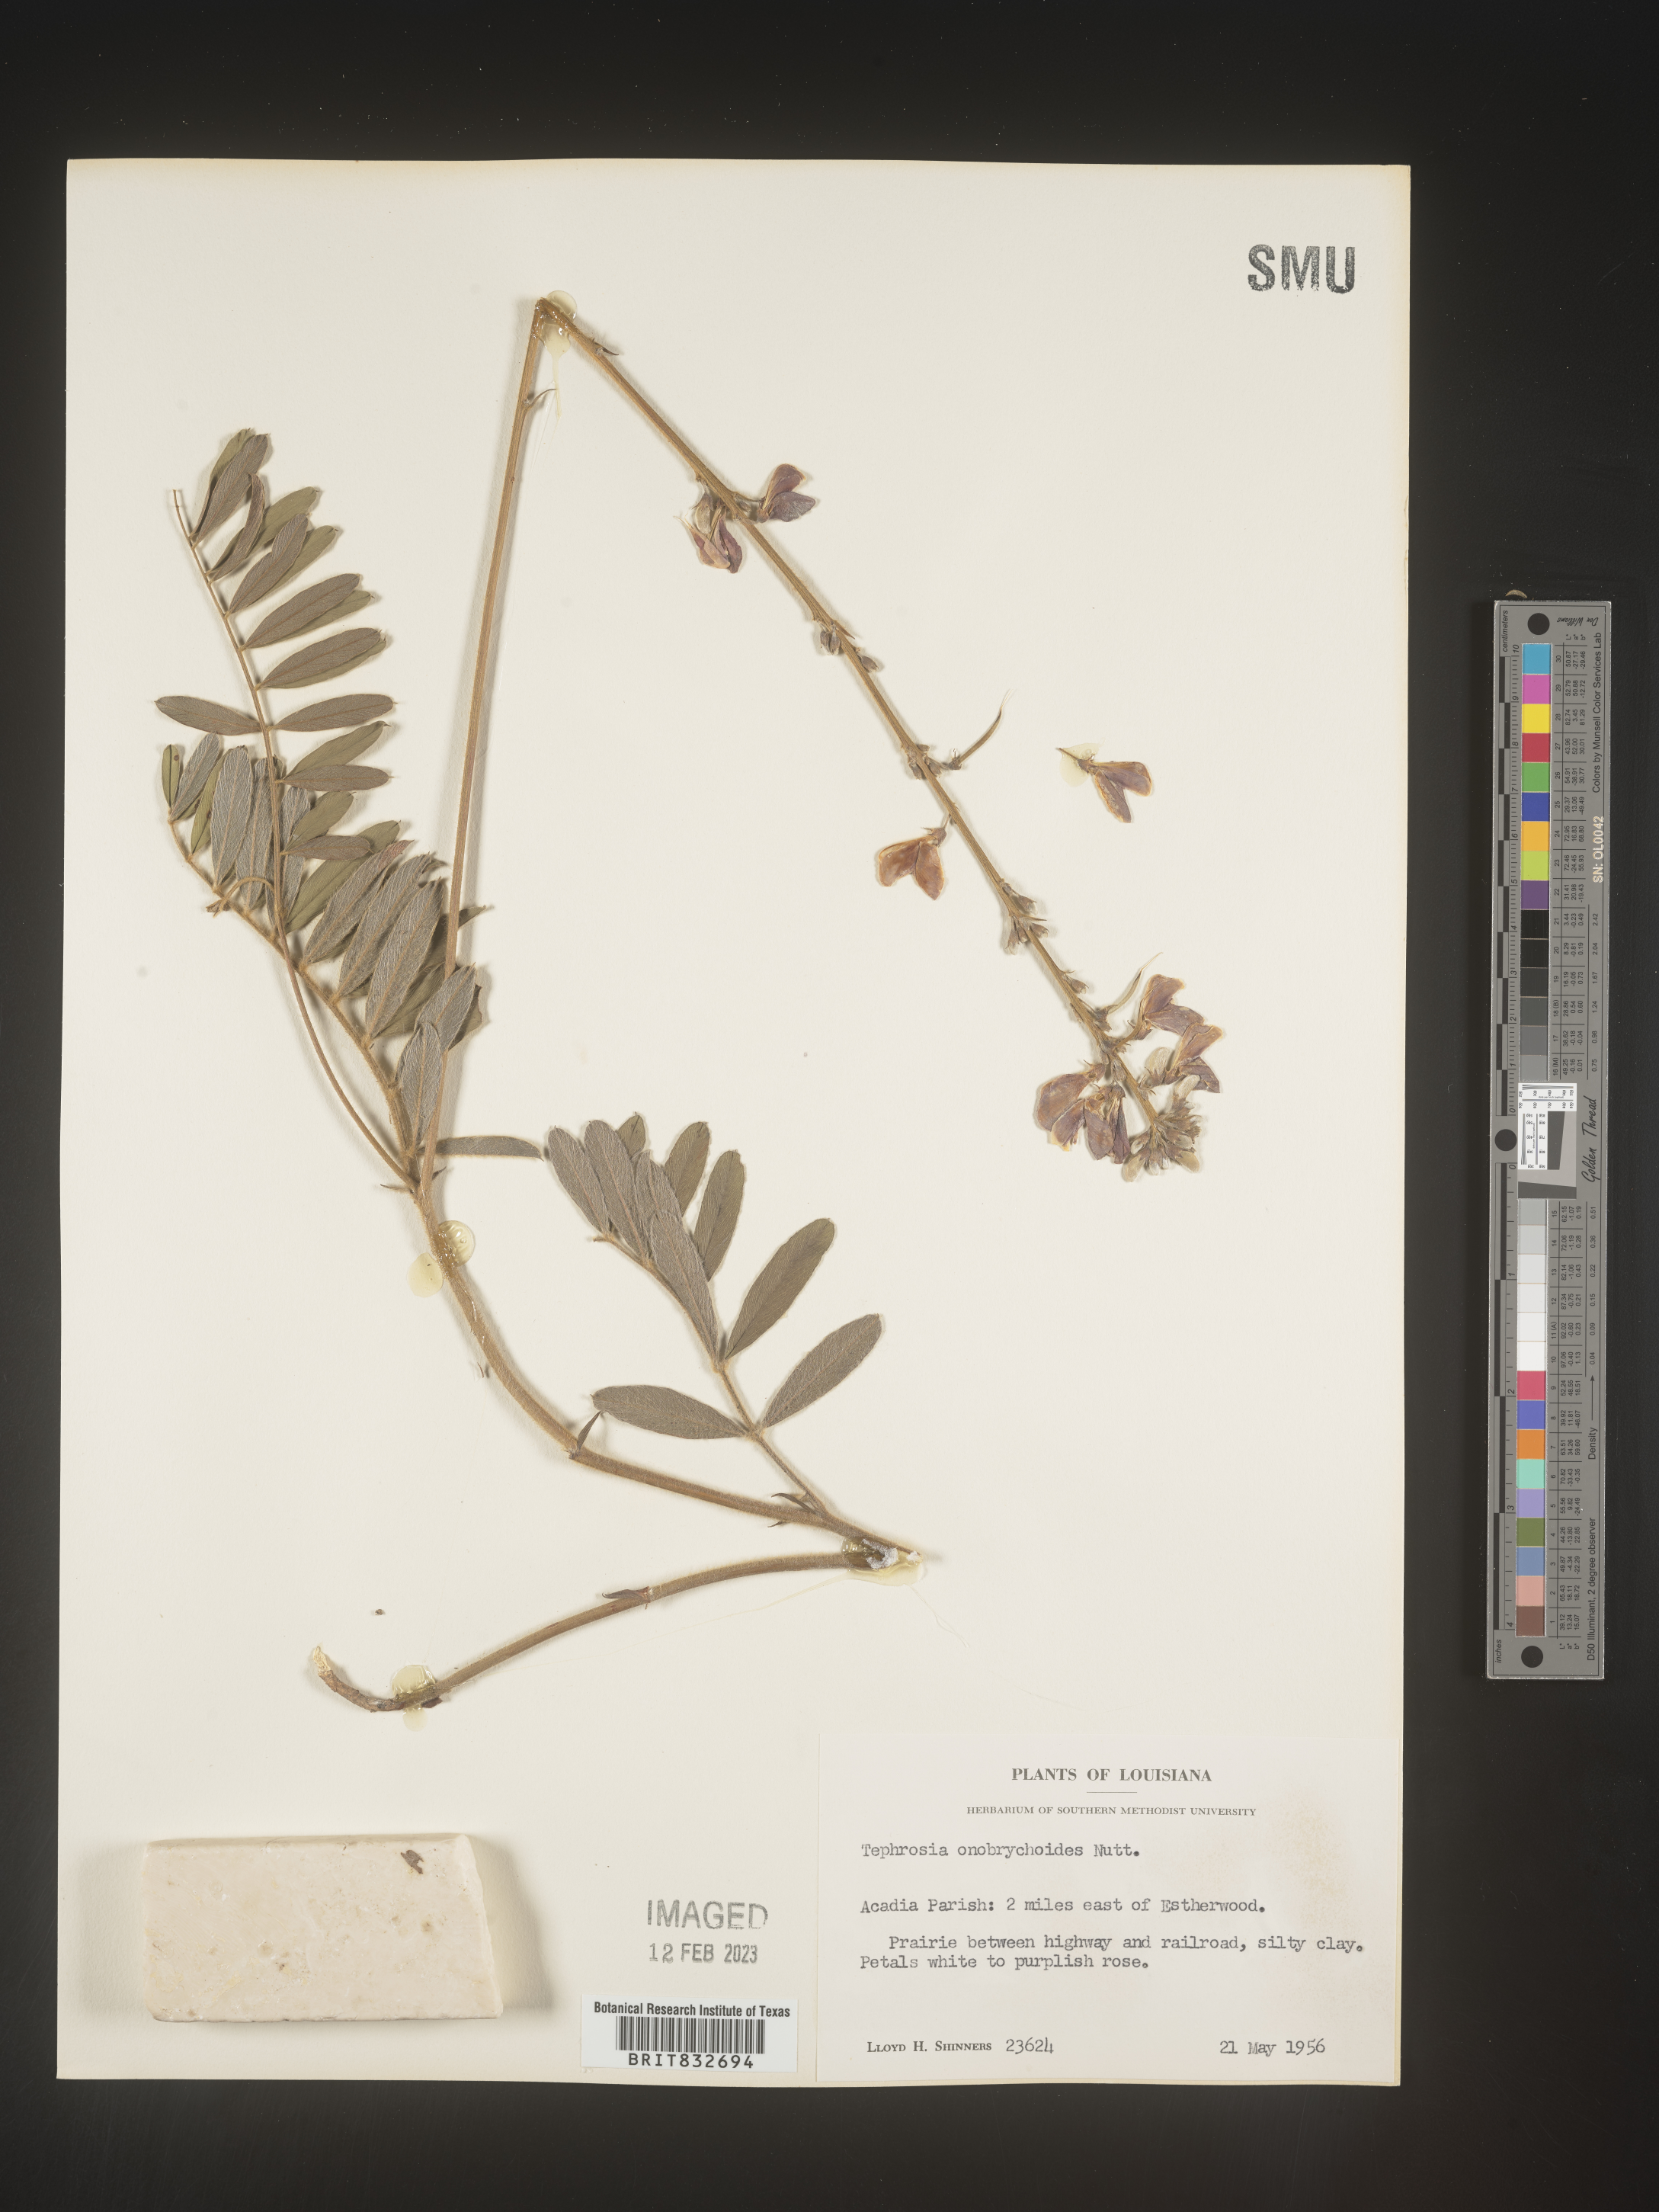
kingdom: Plantae
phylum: Tracheophyta
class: Magnoliopsida
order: Fabales
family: Fabaceae
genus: Tephrosia
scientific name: Tephrosia onobrychoides
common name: Multi-bloom hoary-pea
